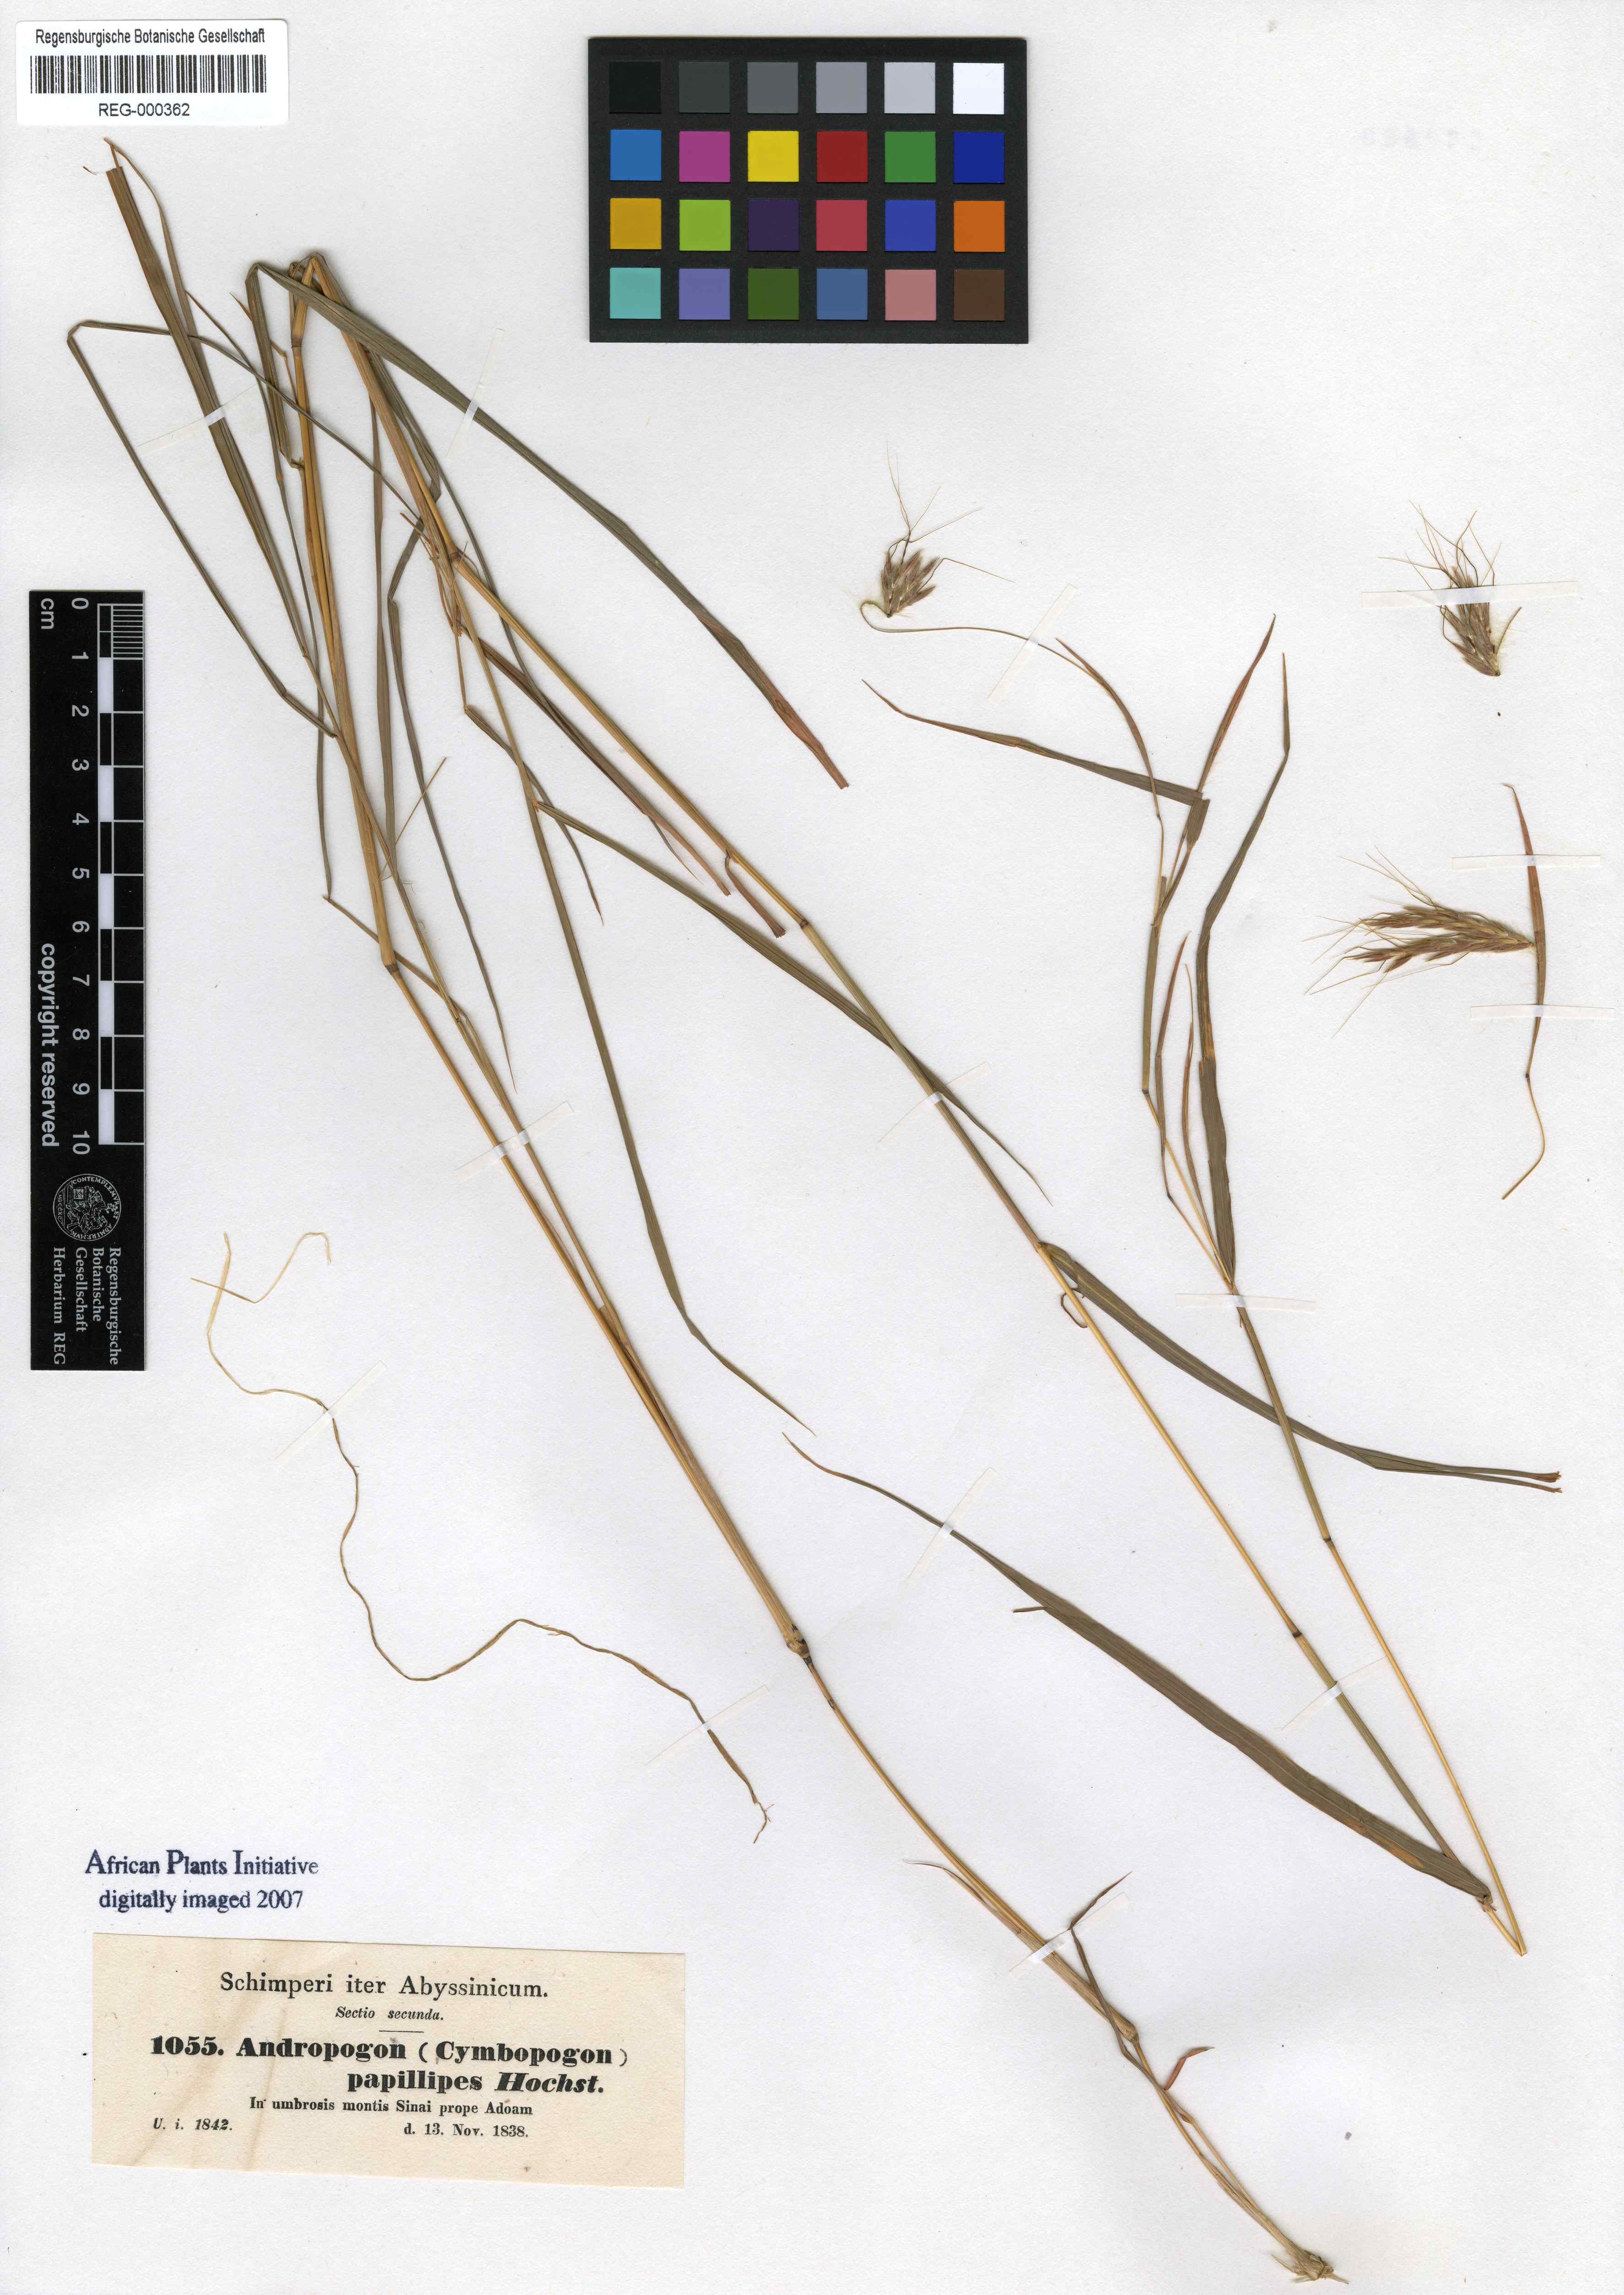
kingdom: Plantae
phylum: Tracheophyta
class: Liliopsida
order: Poales
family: Poaceae
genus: Hyparrhenia
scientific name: Hyparrhenia papillipes
